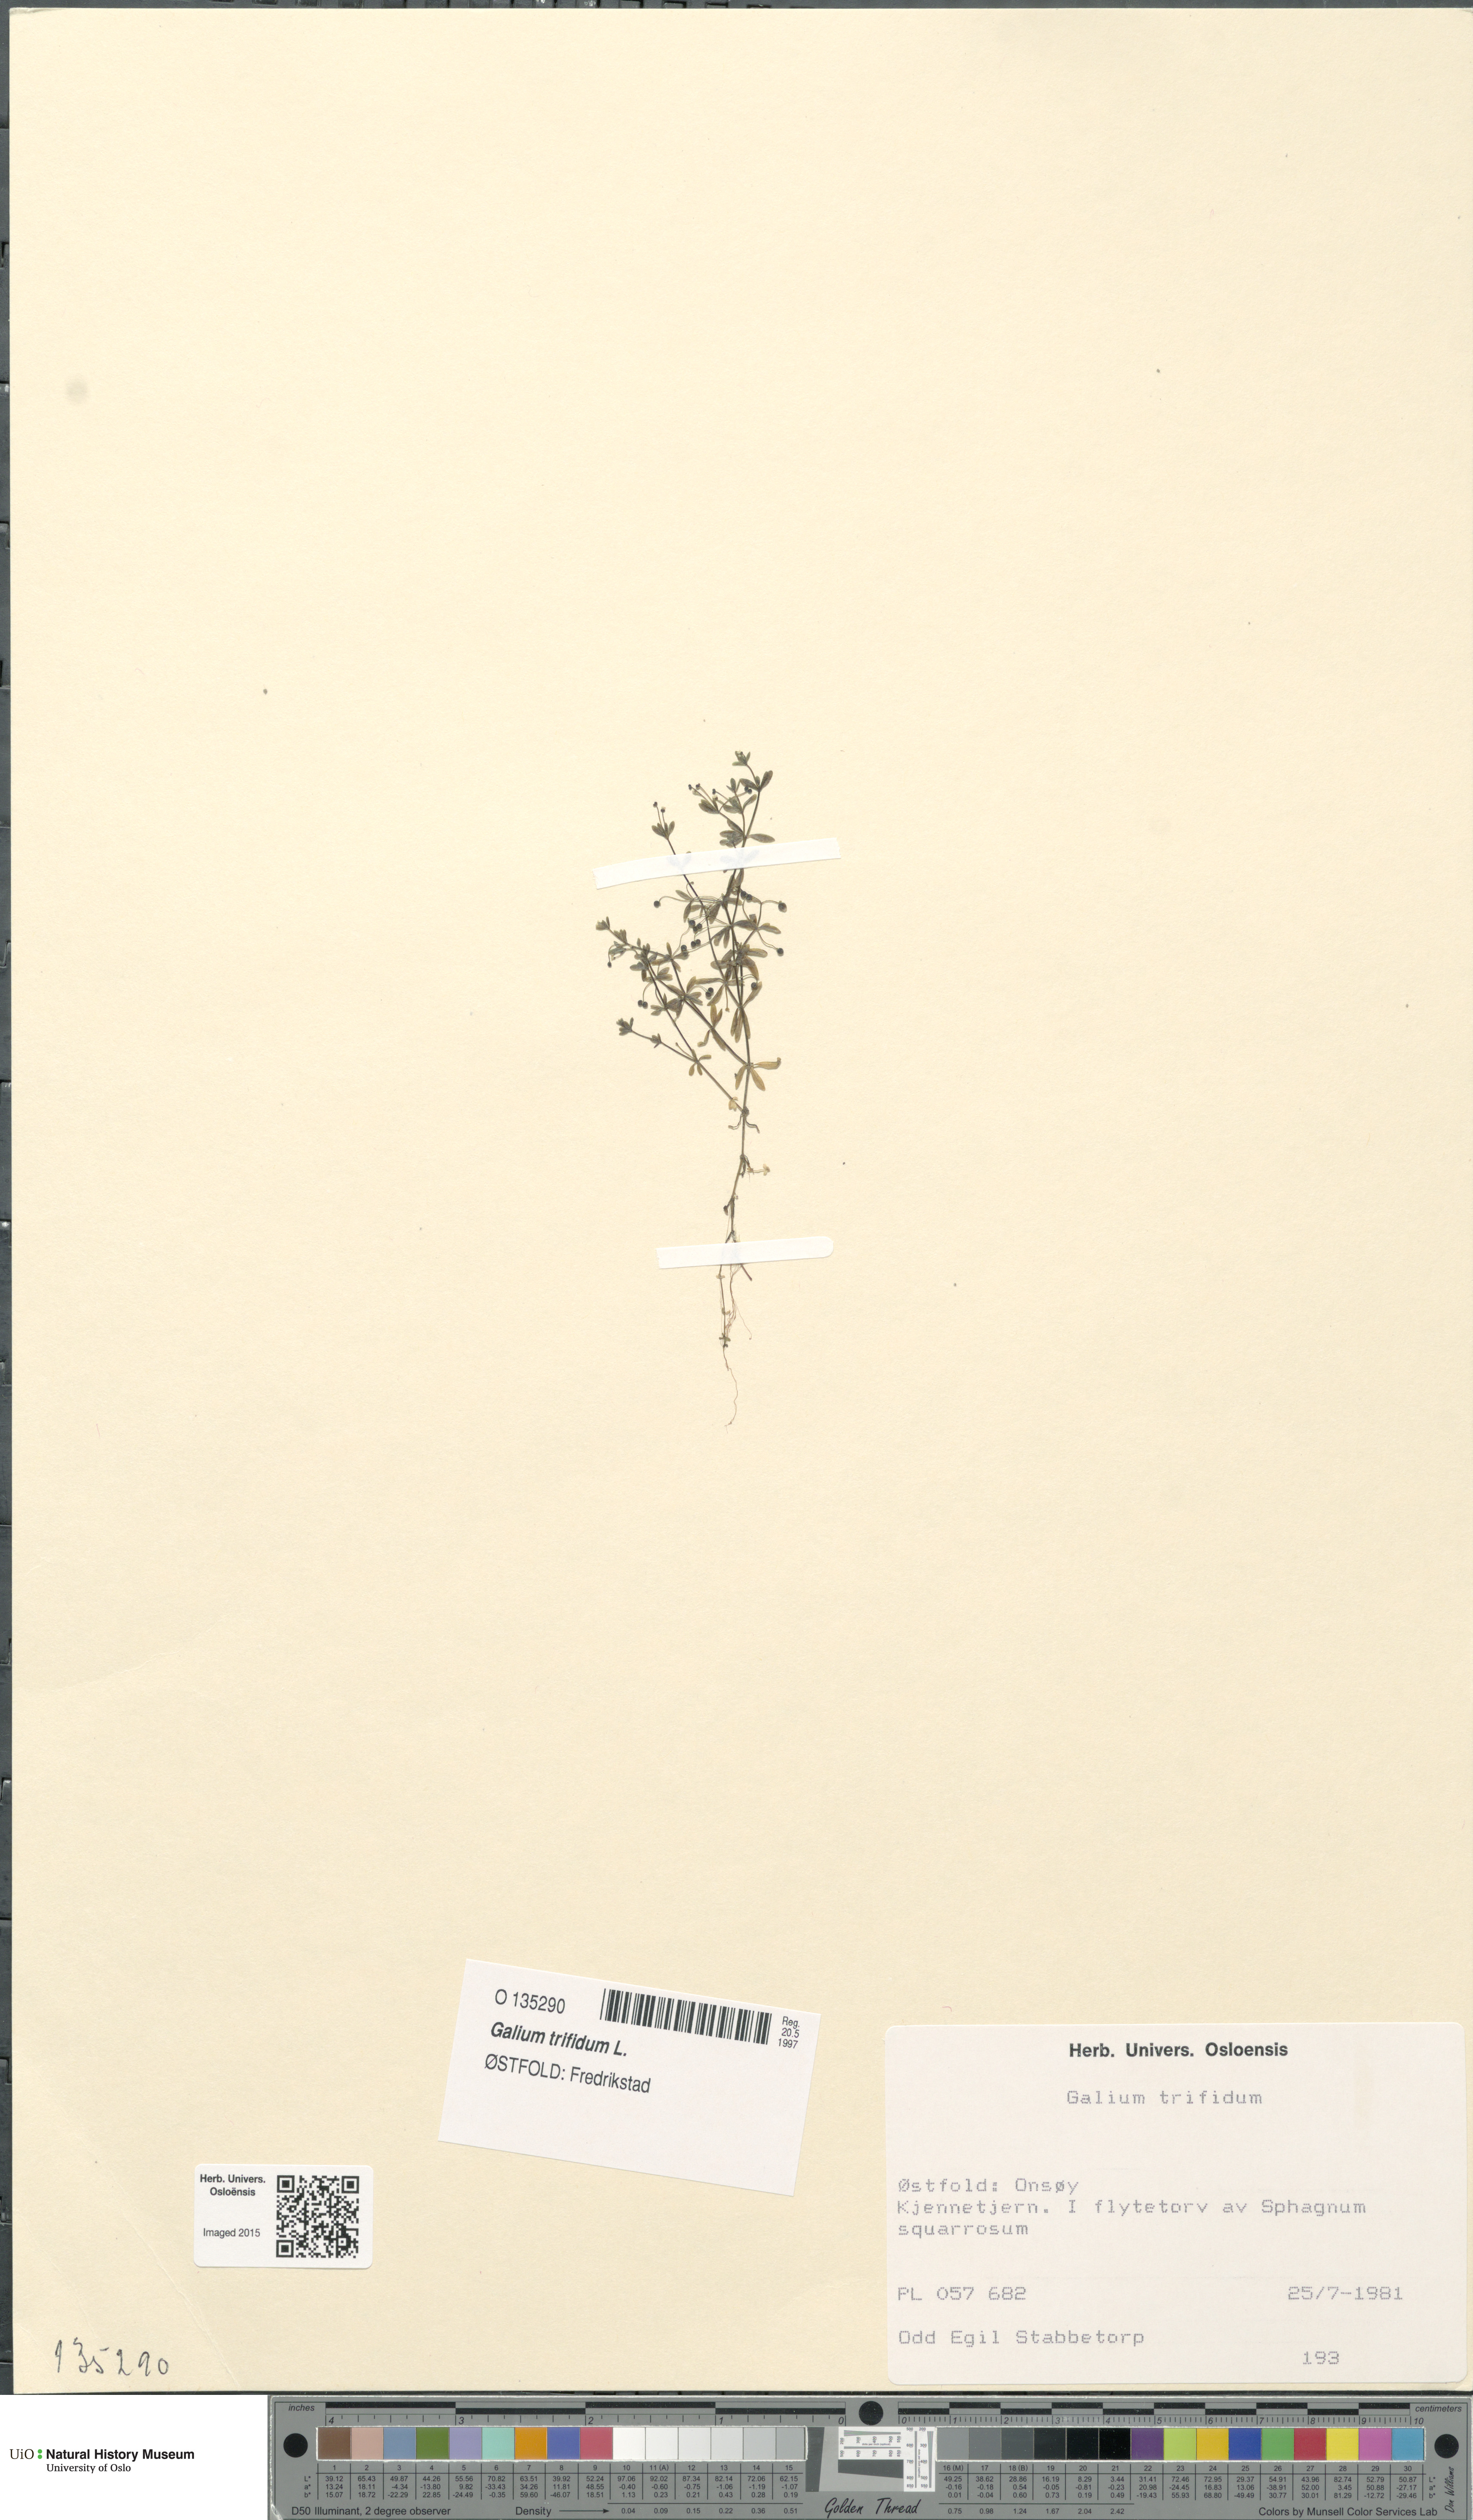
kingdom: Plantae
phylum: Tracheophyta
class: Magnoliopsida
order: Gentianales
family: Rubiaceae
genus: Galium
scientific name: Galium trifidum
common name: Small bedstraw
